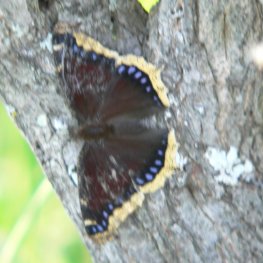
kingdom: Animalia
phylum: Arthropoda
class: Insecta
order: Lepidoptera
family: Nymphalidae
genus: Nymphalis
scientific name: Nymphalis antiopa
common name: Mourning Cloak
